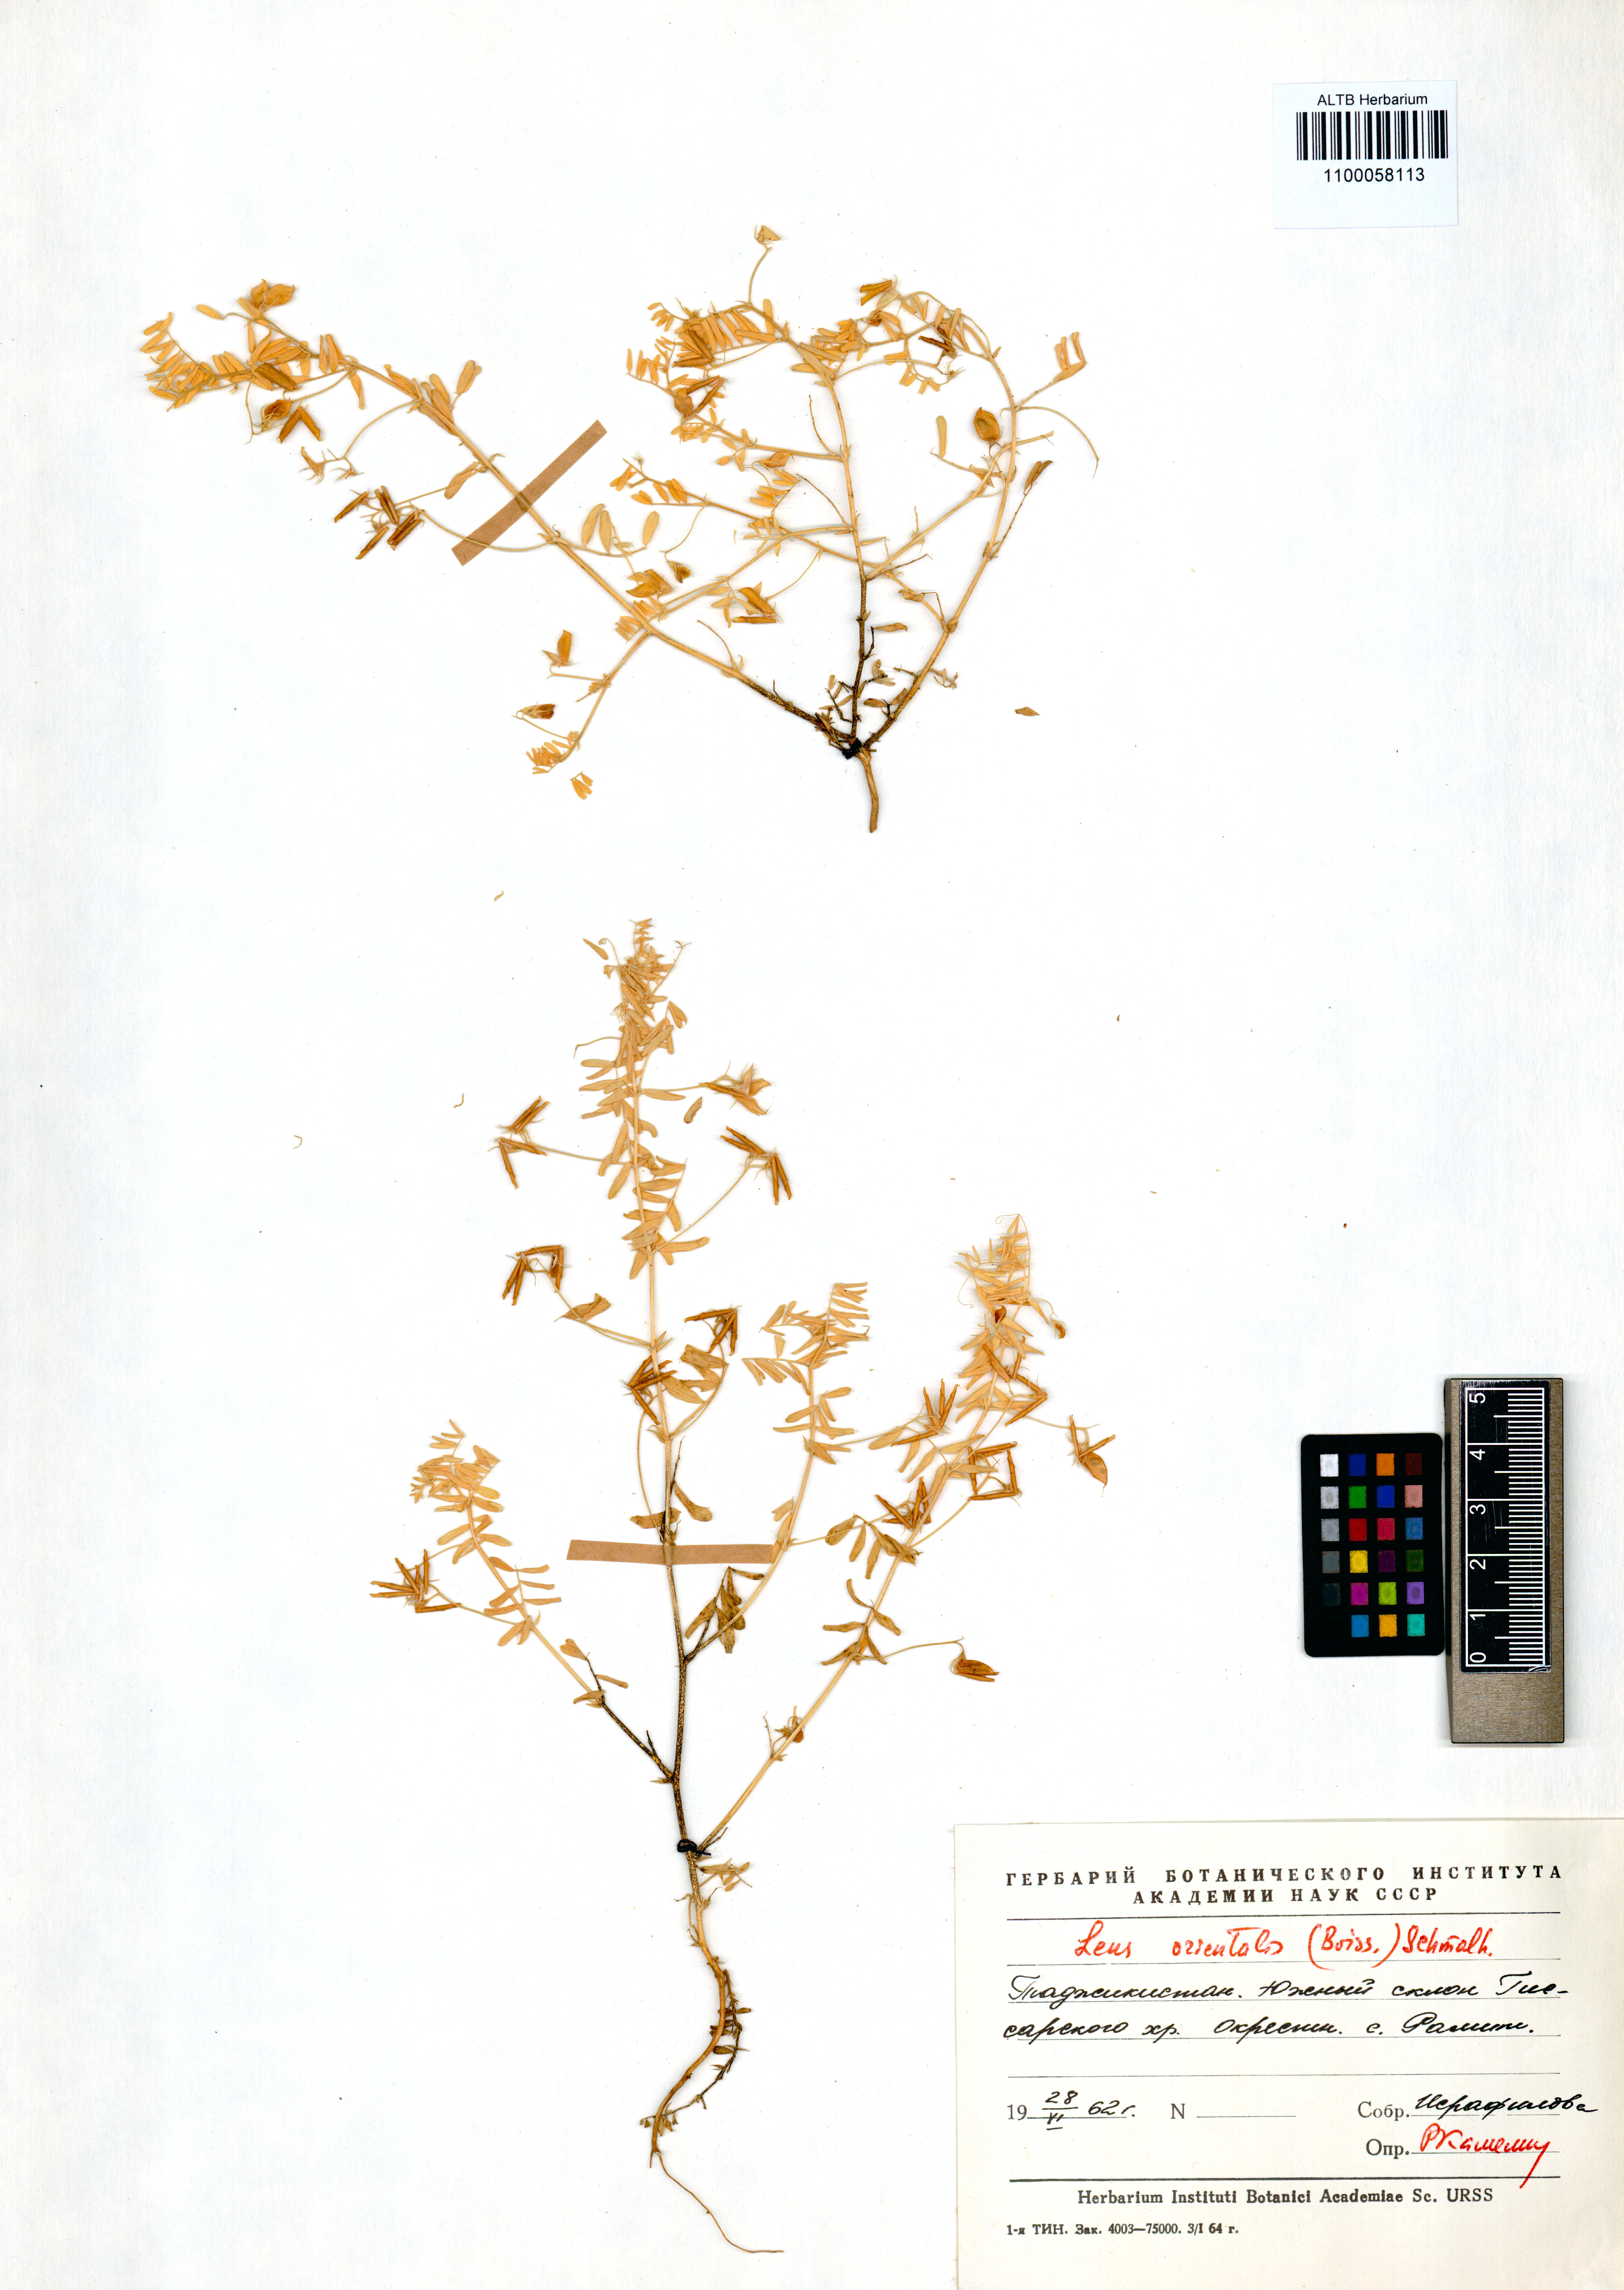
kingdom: Plantae
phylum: Tracheophyta
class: Magnoliopsida
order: Fabales
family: Fabaceae
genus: Vicia
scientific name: Vicia lens
